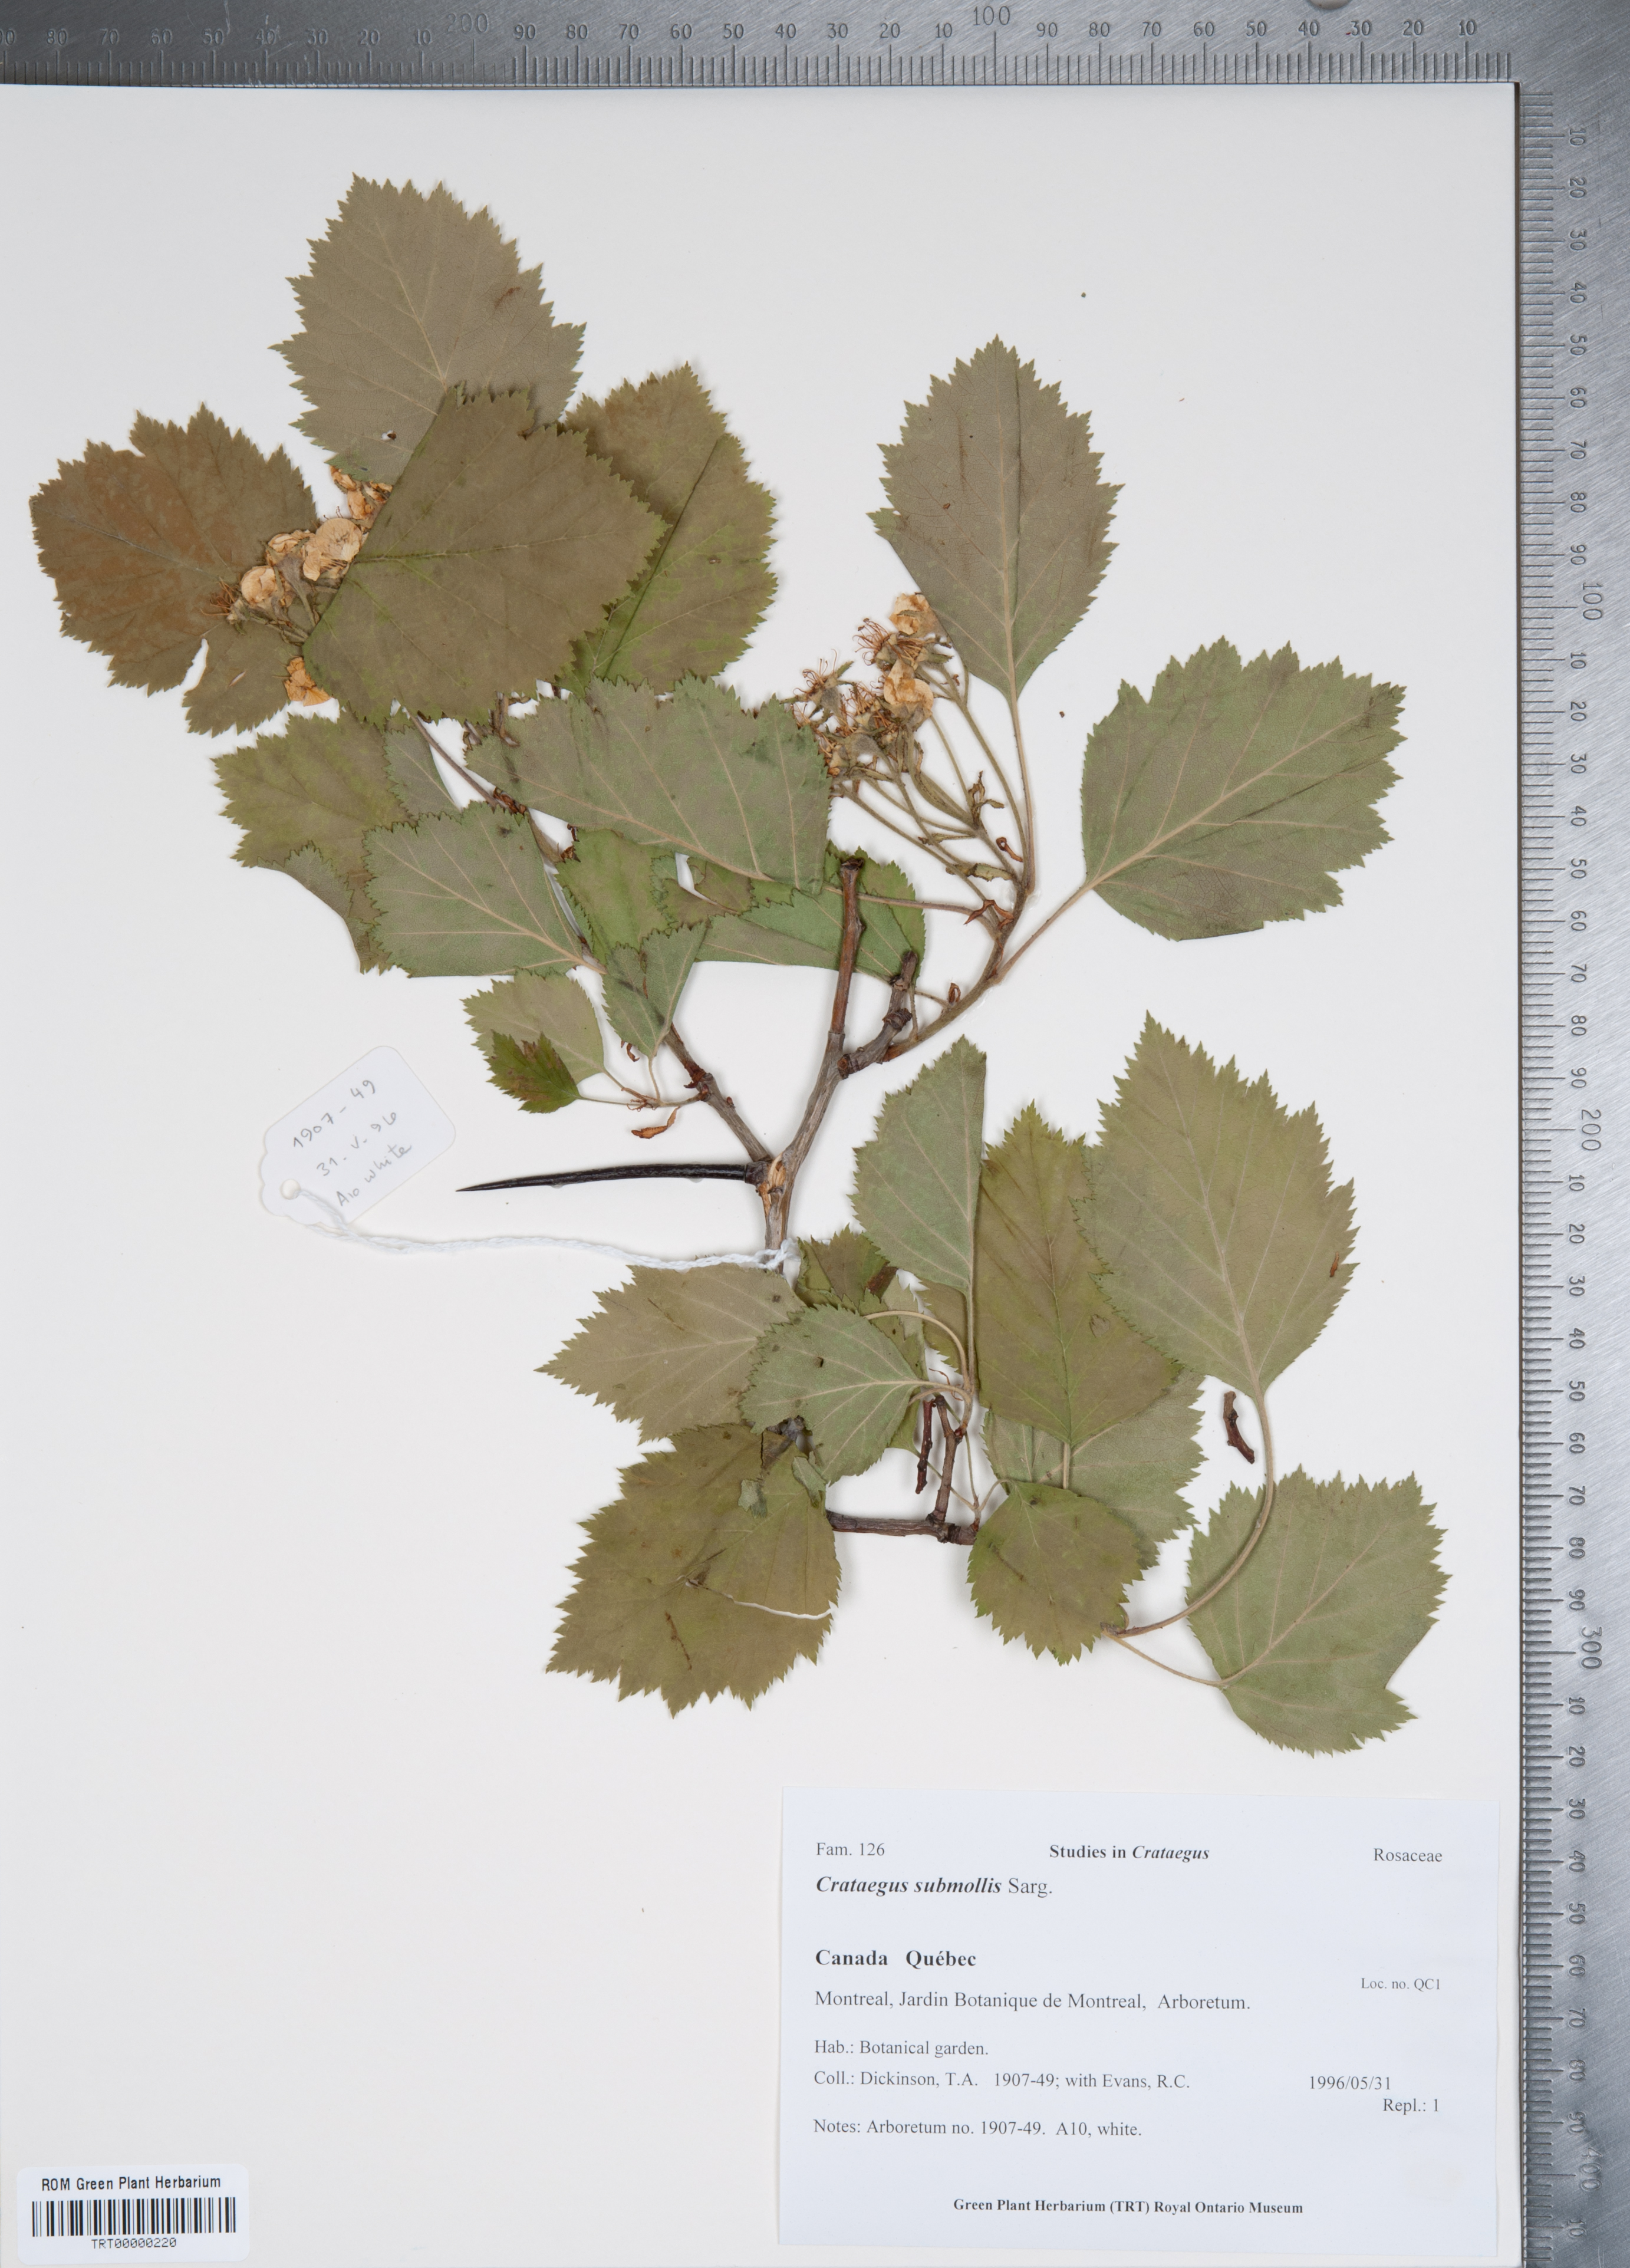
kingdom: Plantae
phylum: Tracheophyta
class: Magnoliopsida
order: Rosales
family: Rosaceae
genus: Crataegus
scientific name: Crataegus submollis
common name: Hairy cockspurthorn
